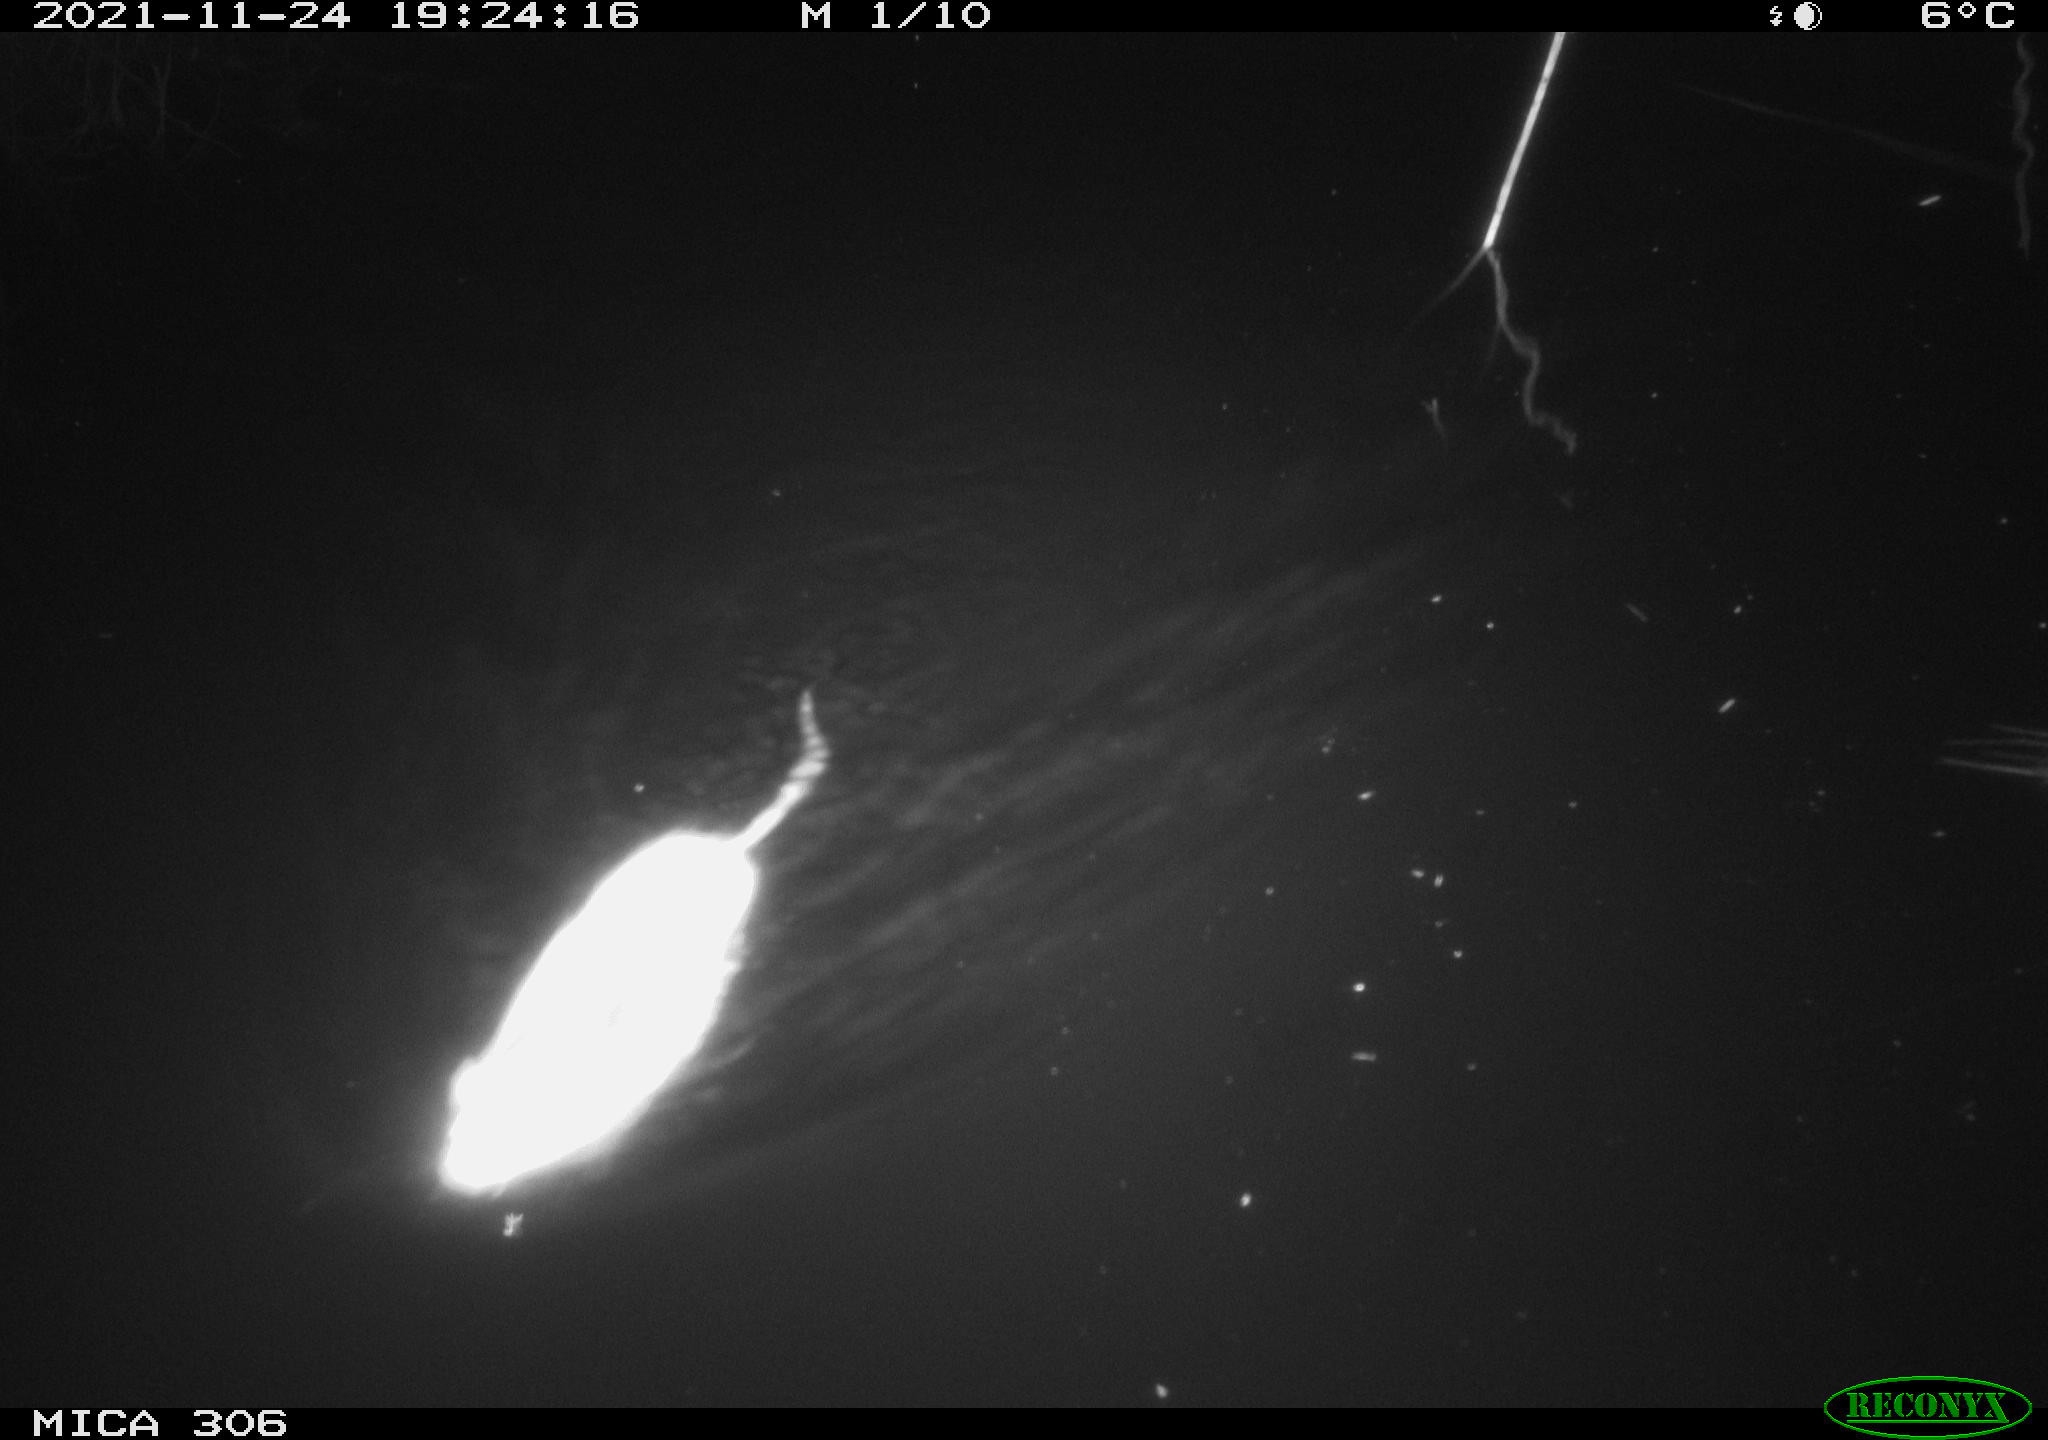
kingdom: Animalia
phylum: Chordata
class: Mammalia
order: Rodentia
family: Muridae
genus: Rattus
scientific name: Rattus norvegicus
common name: Brown rat
